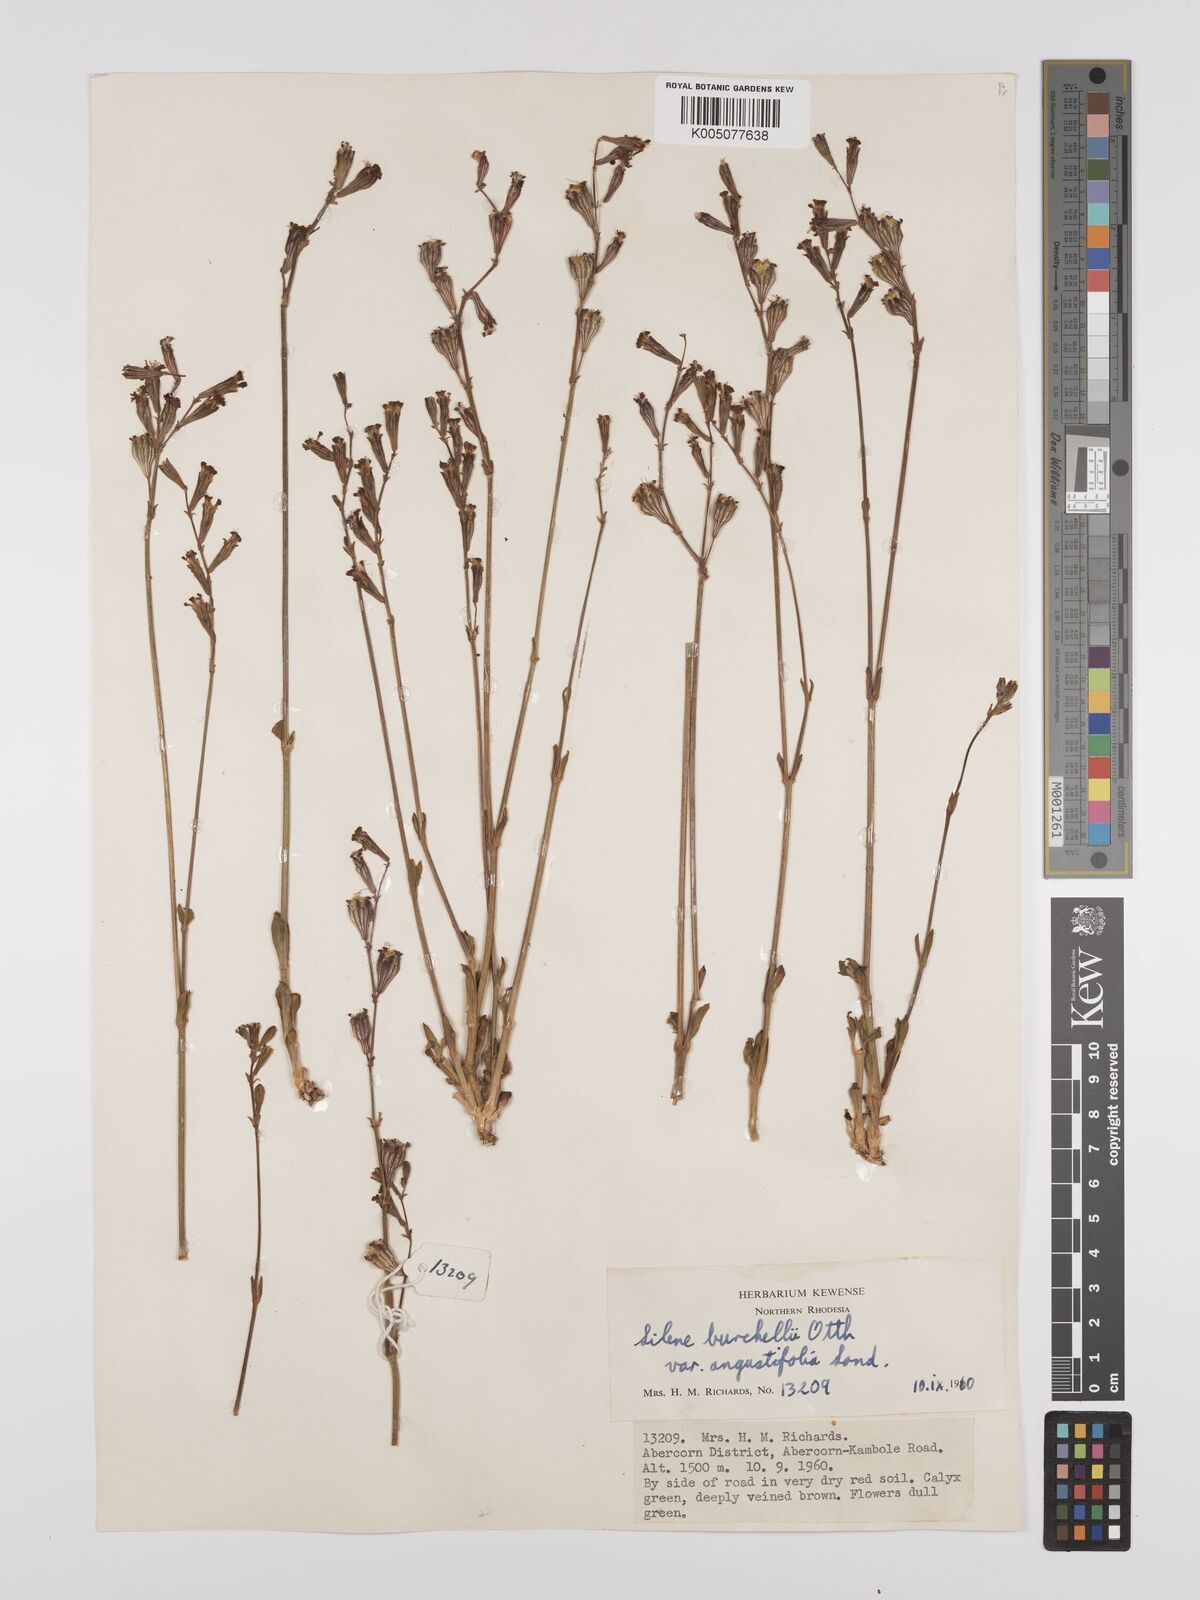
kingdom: Plantae
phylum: Tracheophyta
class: Magnoliopsida
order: Caryophyllales
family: Caryophyllaceae
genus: Silene
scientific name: Silene burchellii
